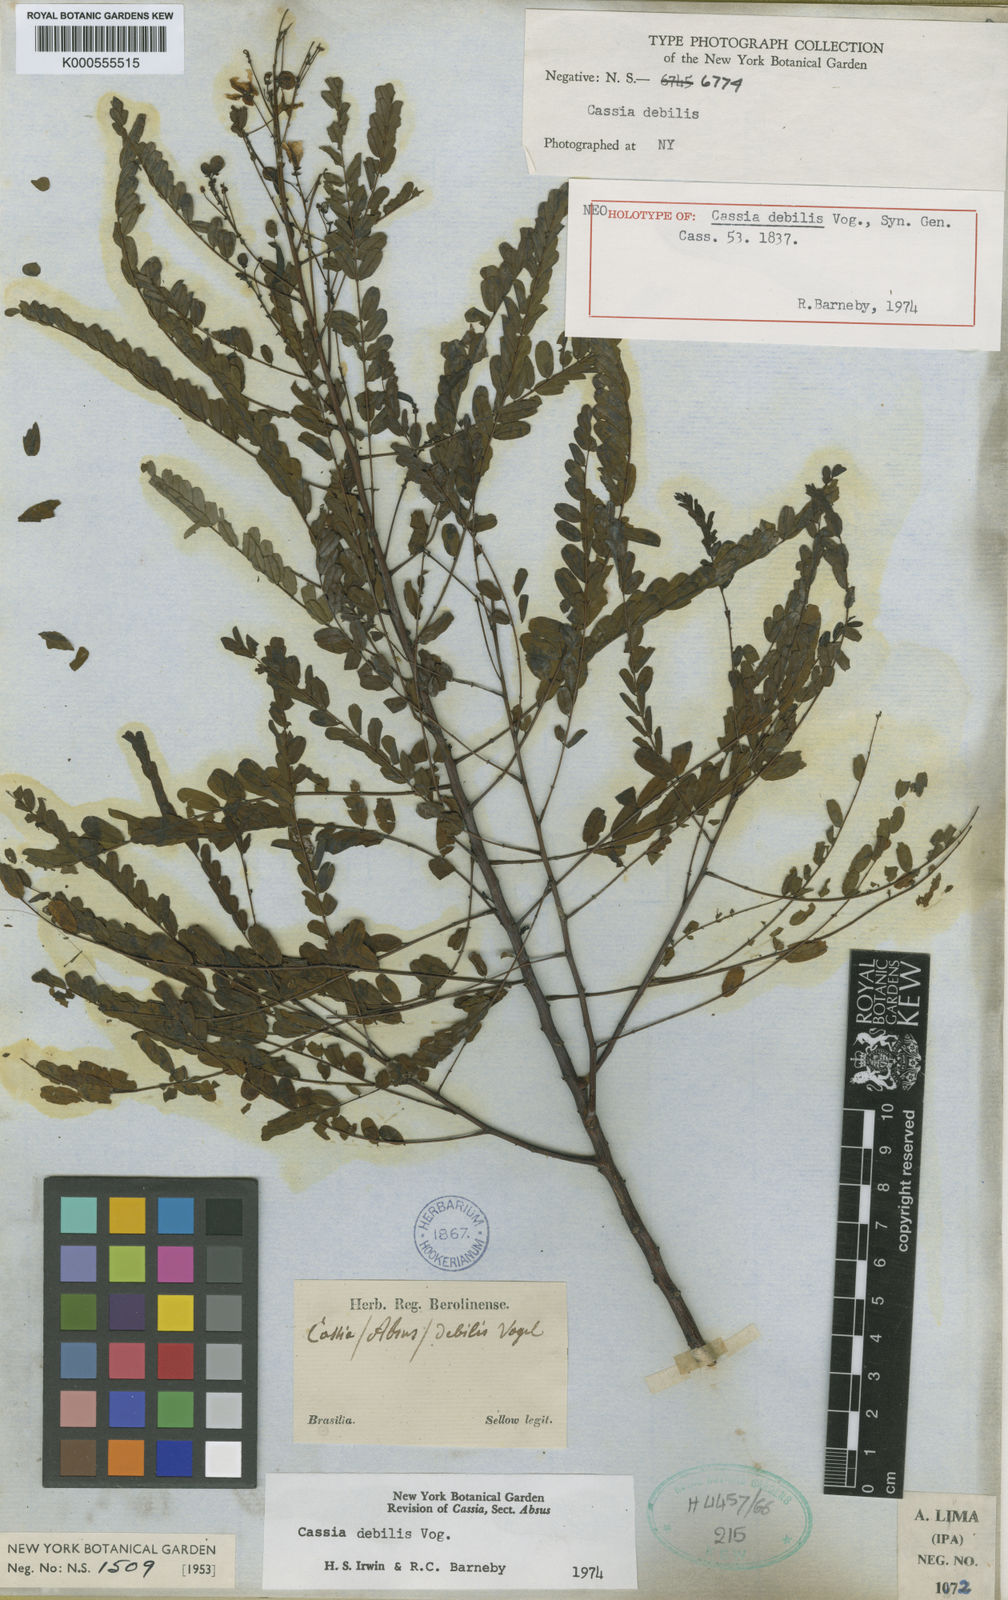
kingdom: Plantae
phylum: Tracheophyta
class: Magnoliopsida
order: Fabales
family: Fabaceae
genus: Chamaecrista
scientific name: Chamaecrista debilis
